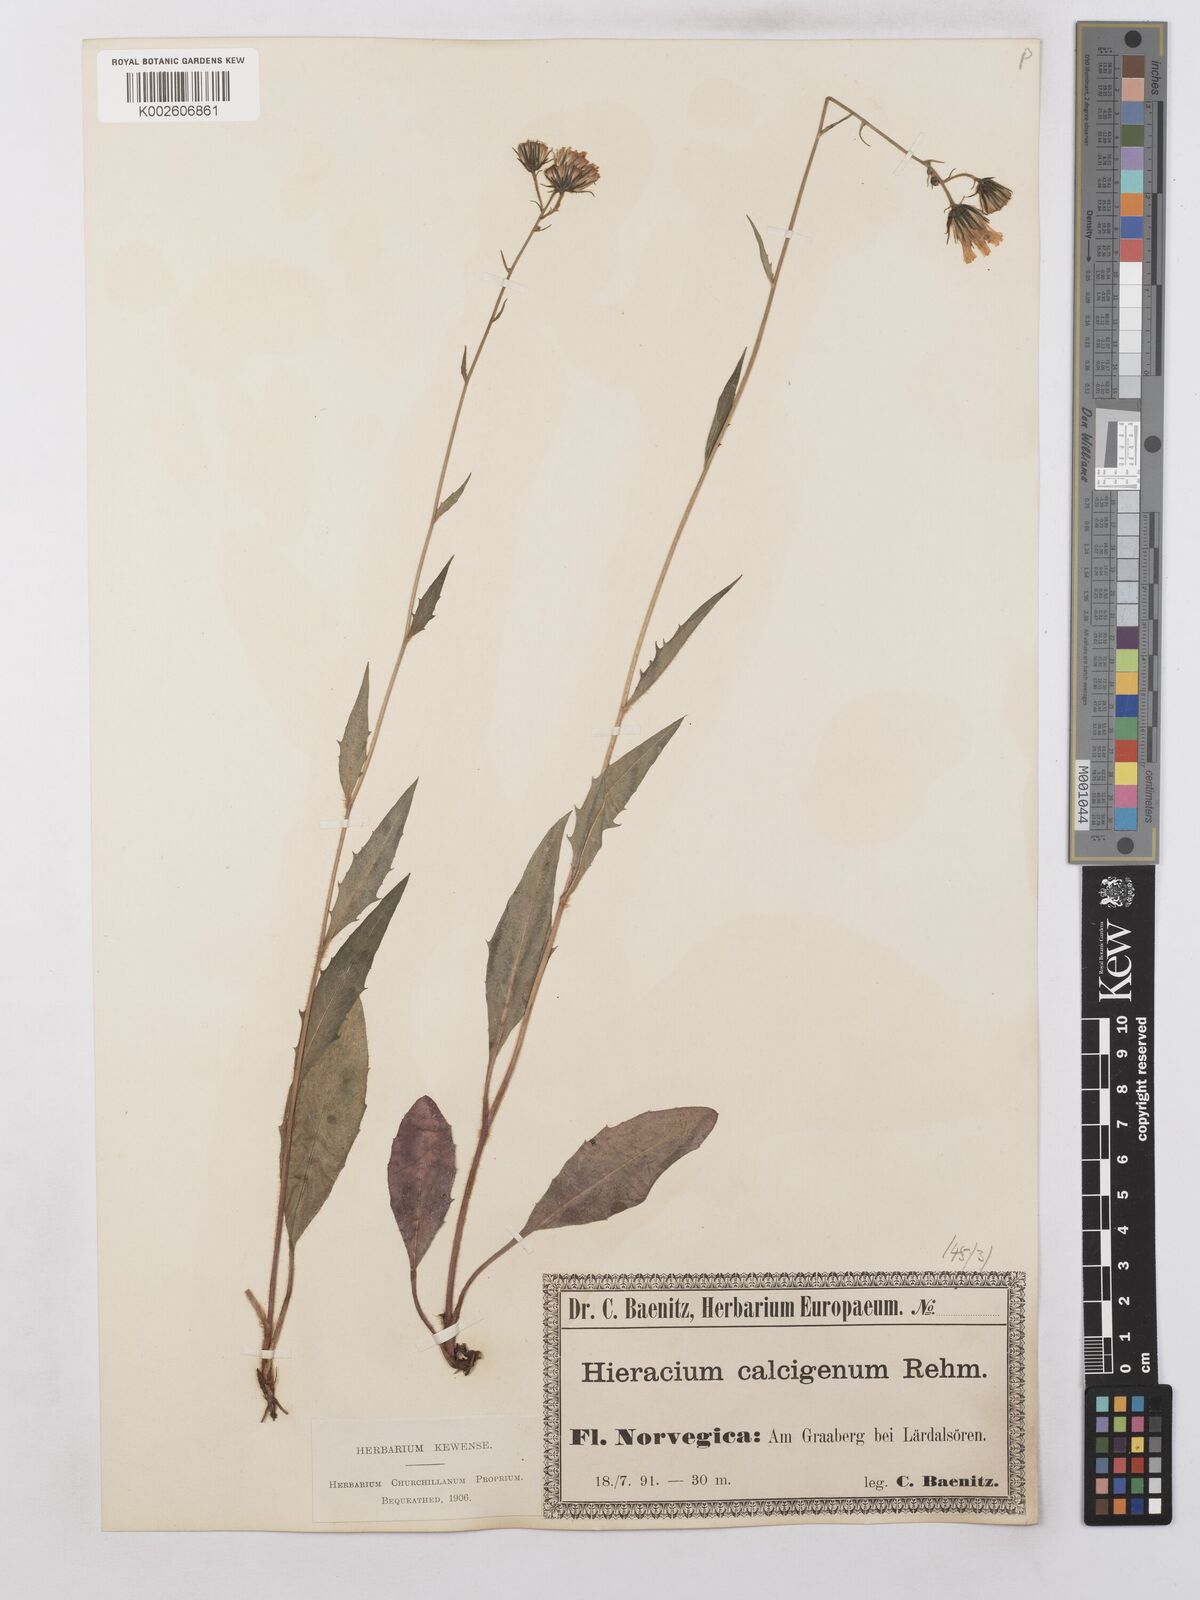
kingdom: Plantae
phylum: Tracheophyta
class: Magnoliopsida
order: Asterales
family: Asteraceae
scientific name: Asteraceae
